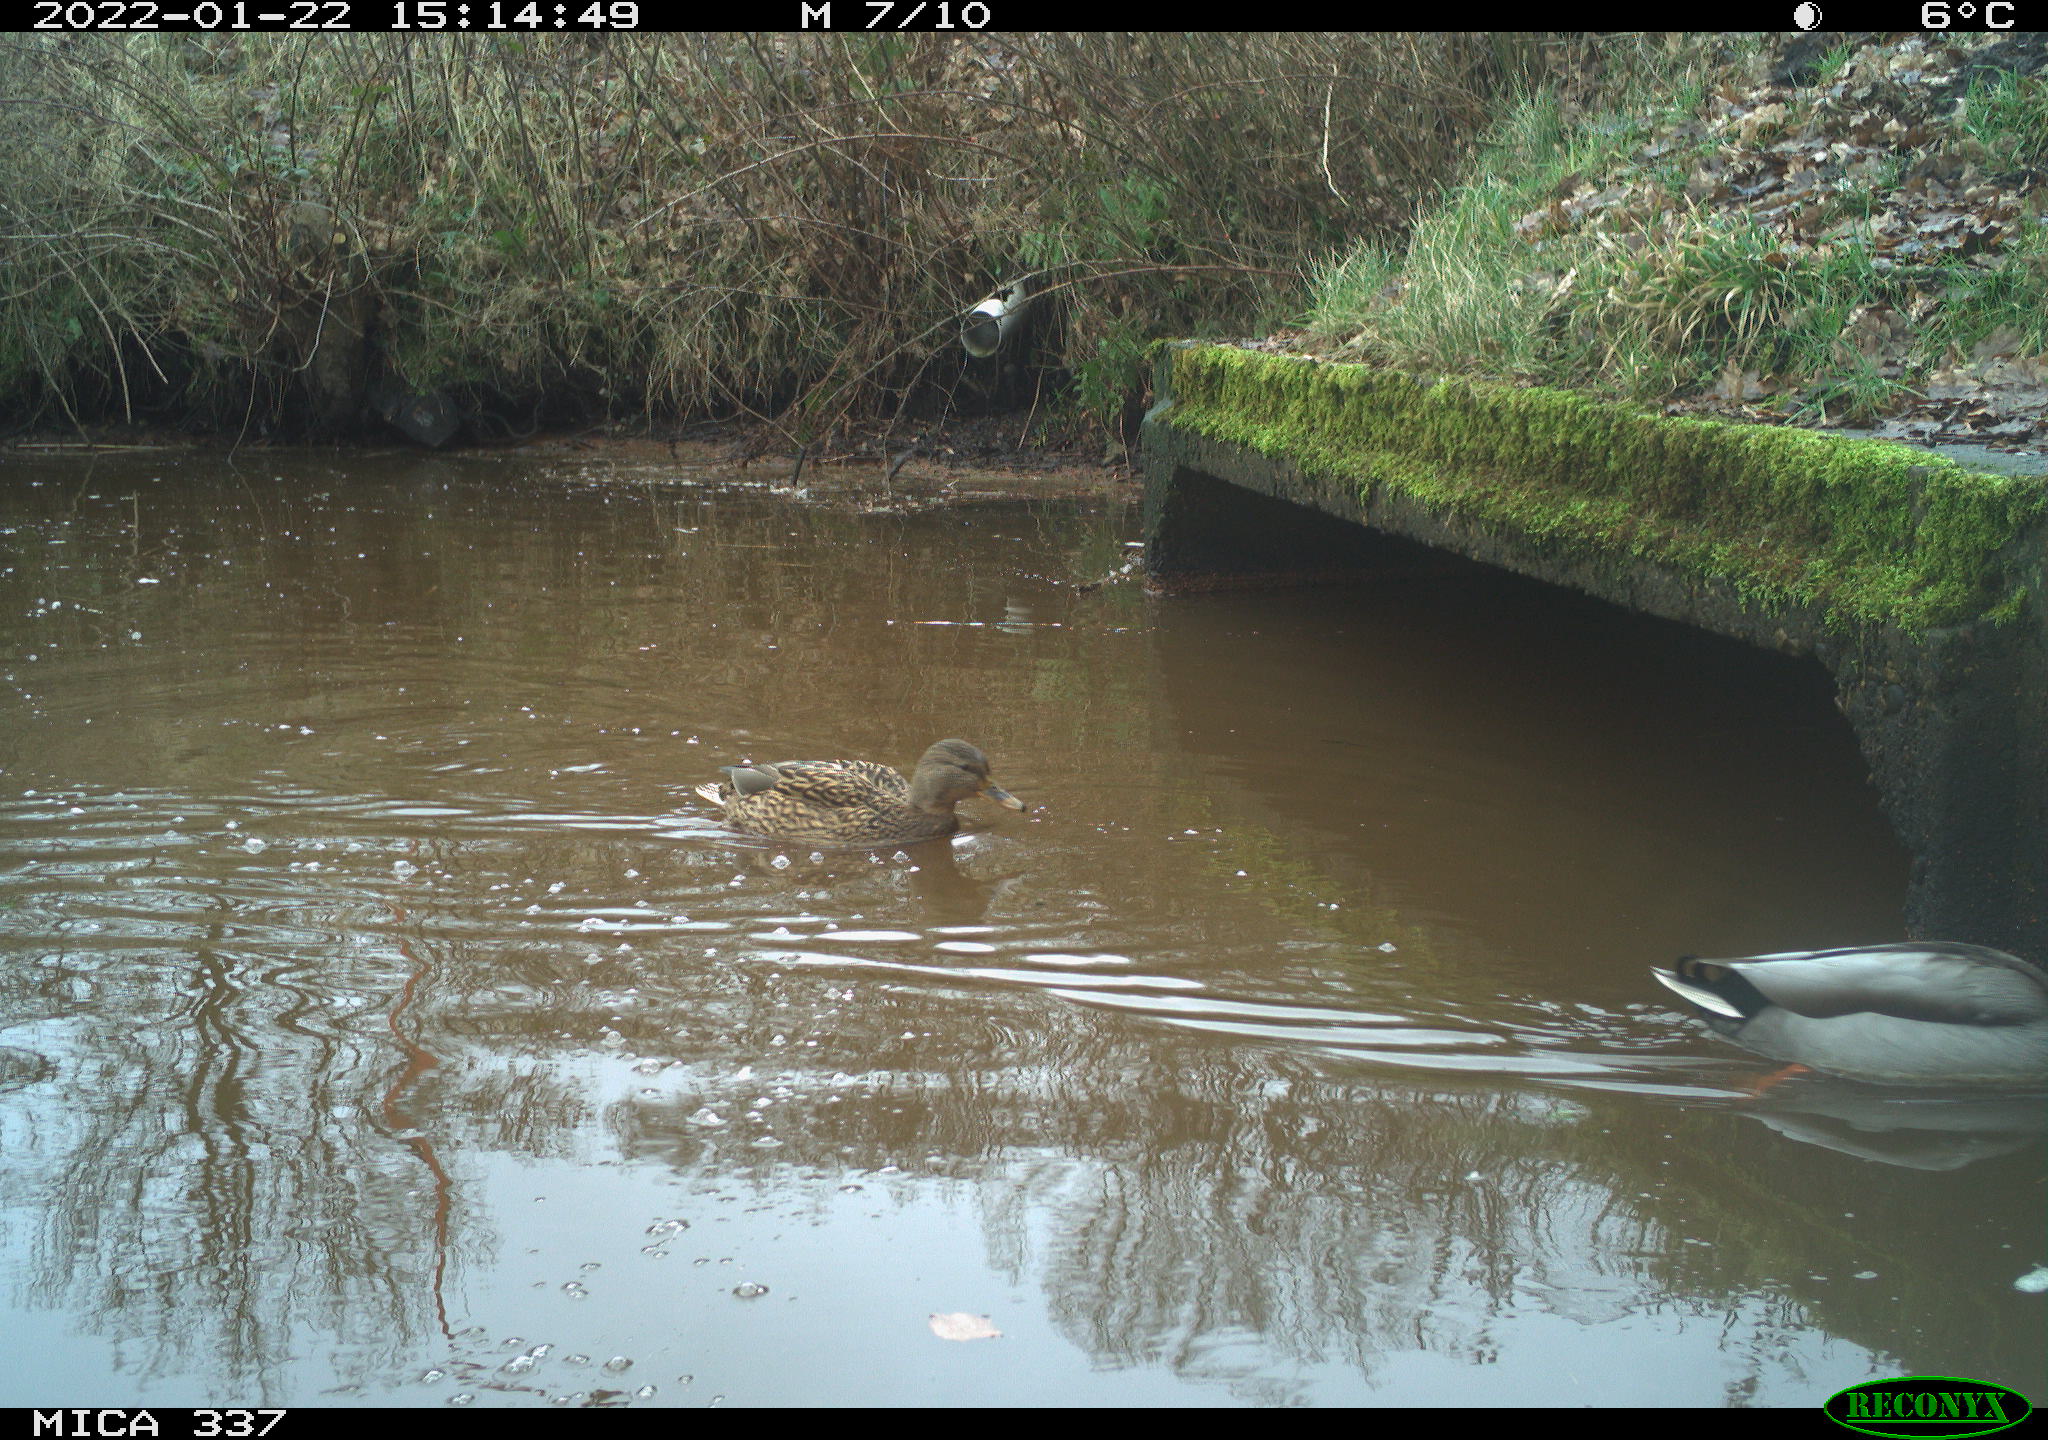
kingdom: Animalia
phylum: Chordata
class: Aves
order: Anseriformes
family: Anatidae
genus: Anas
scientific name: Anas platyrhynchos
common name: Mallard
